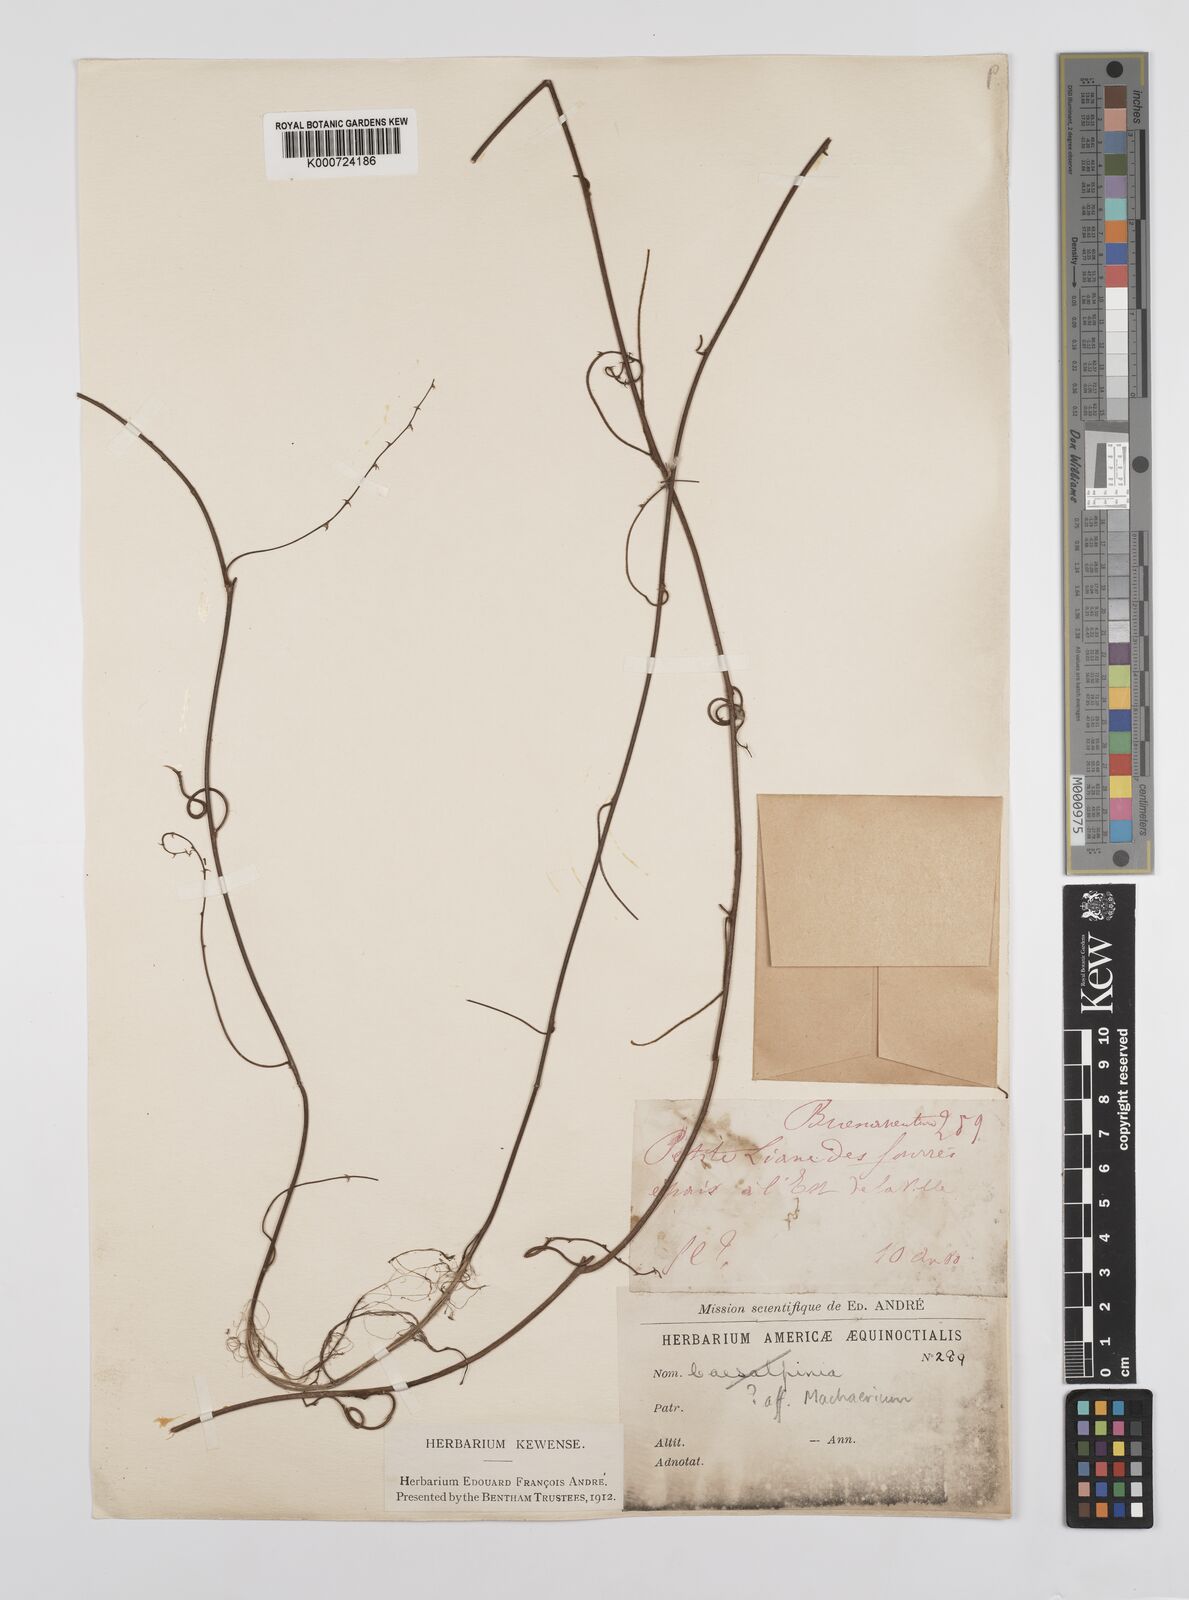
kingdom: Plantae
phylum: Tracheophyta
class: Magnoliopsida
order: Fabales
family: Fabaceae
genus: Caesalpinia
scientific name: Caesalpinia
